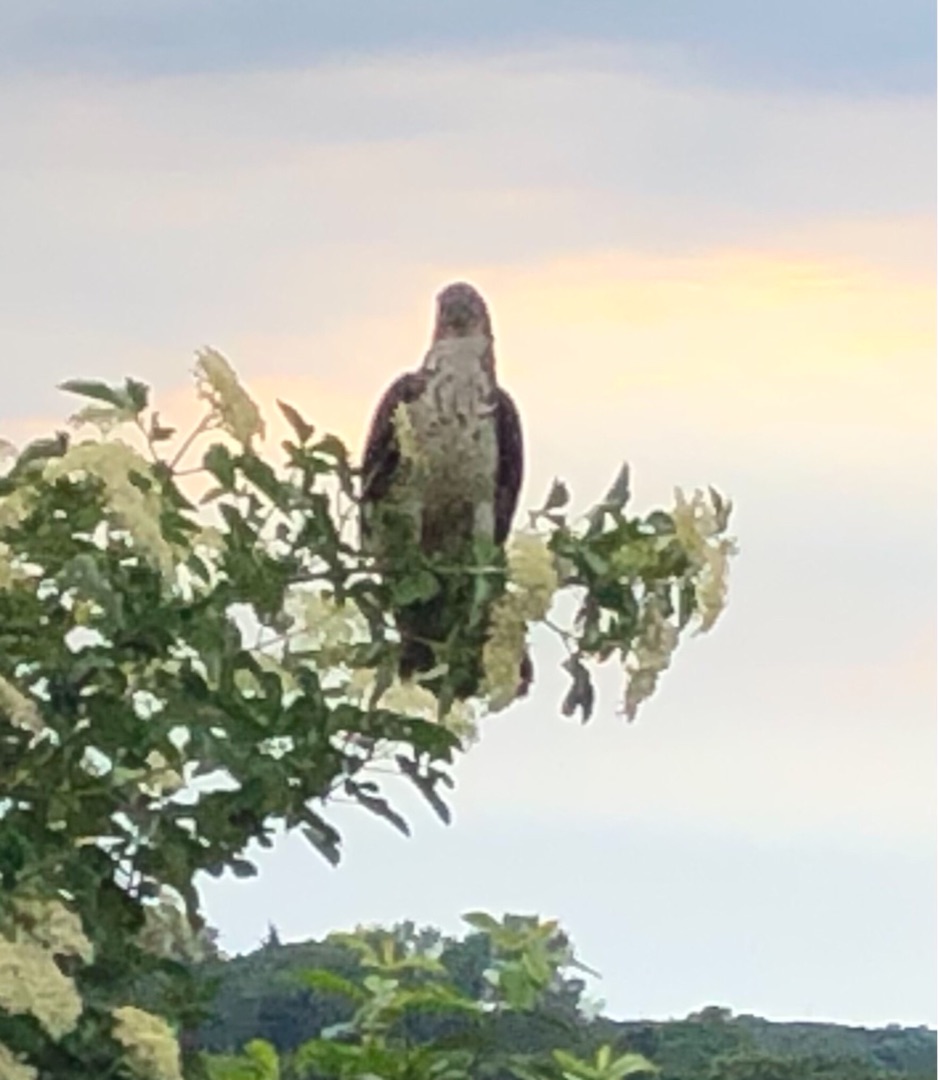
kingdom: Animalia
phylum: Chordata
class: Aves
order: Accipitriformes
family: Accipitridae
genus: Pernis
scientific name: Pernis apivorus
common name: Hvepsevåge
